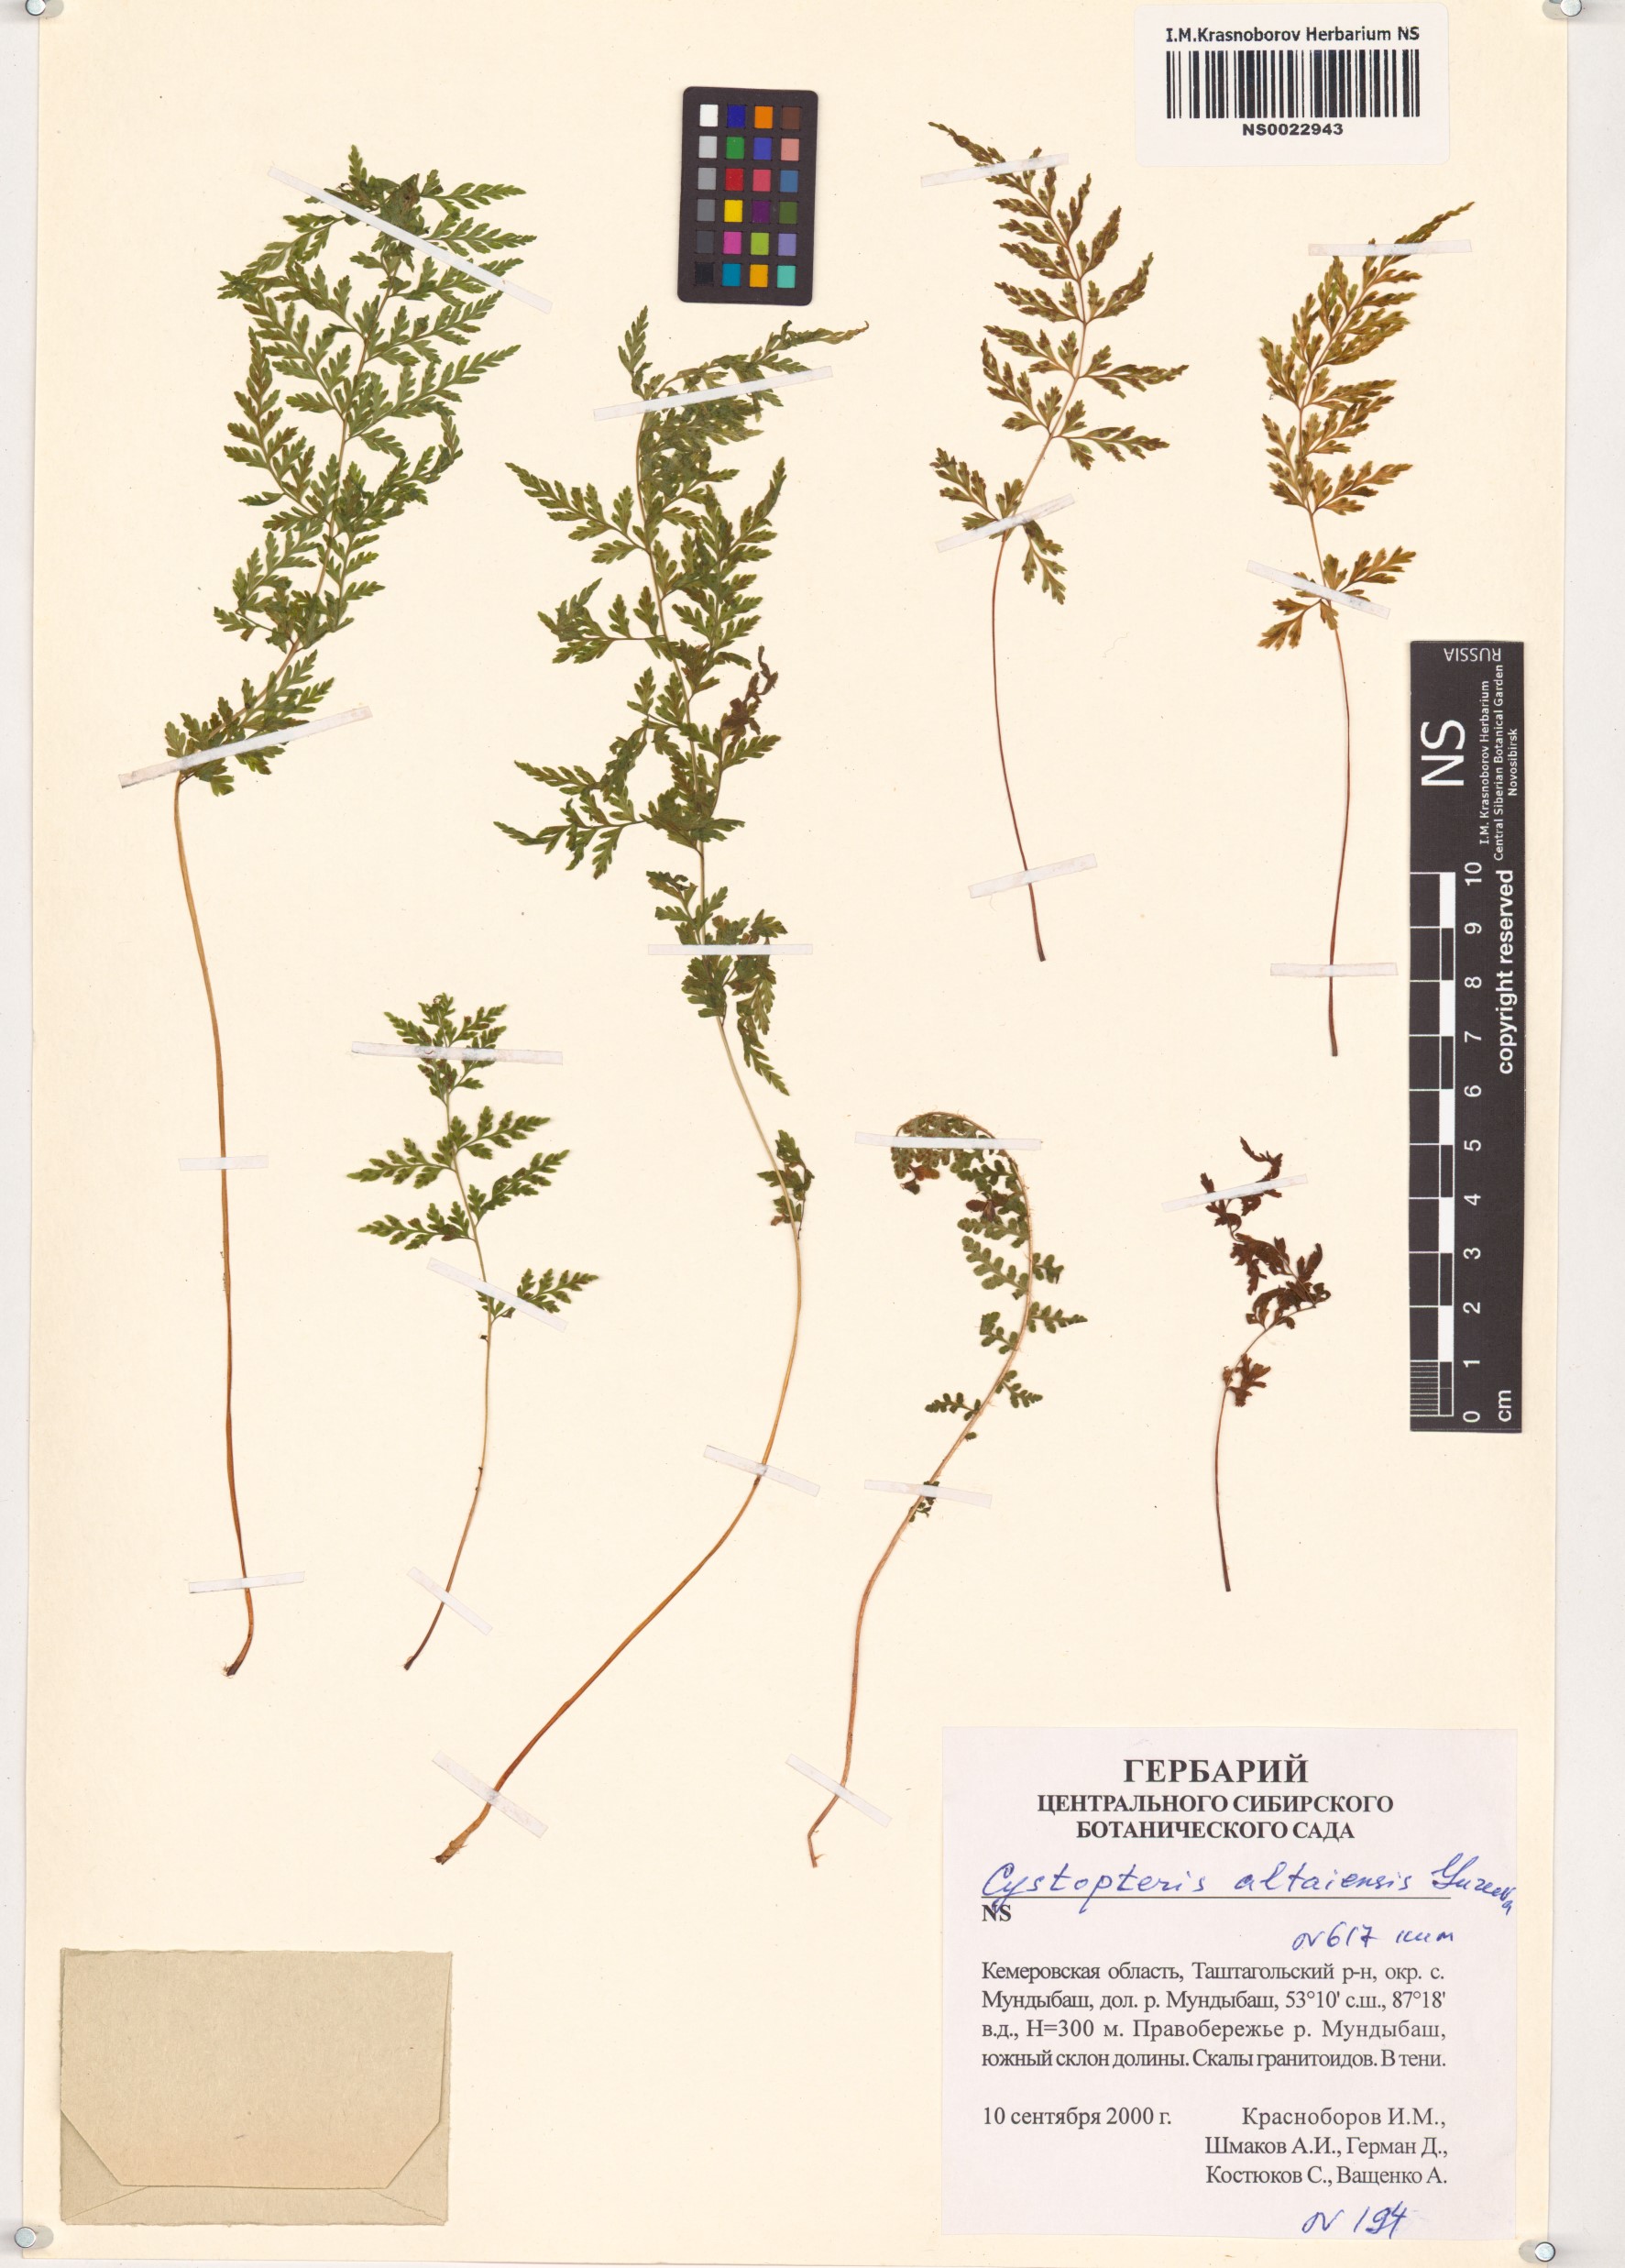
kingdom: Plantae
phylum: Tracheophyta
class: Polypodiopsida
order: Polypodiales
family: Cystopteridaceae
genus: Cystopteris
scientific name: Cystopteris diaphana
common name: Greenish bladder-fern
